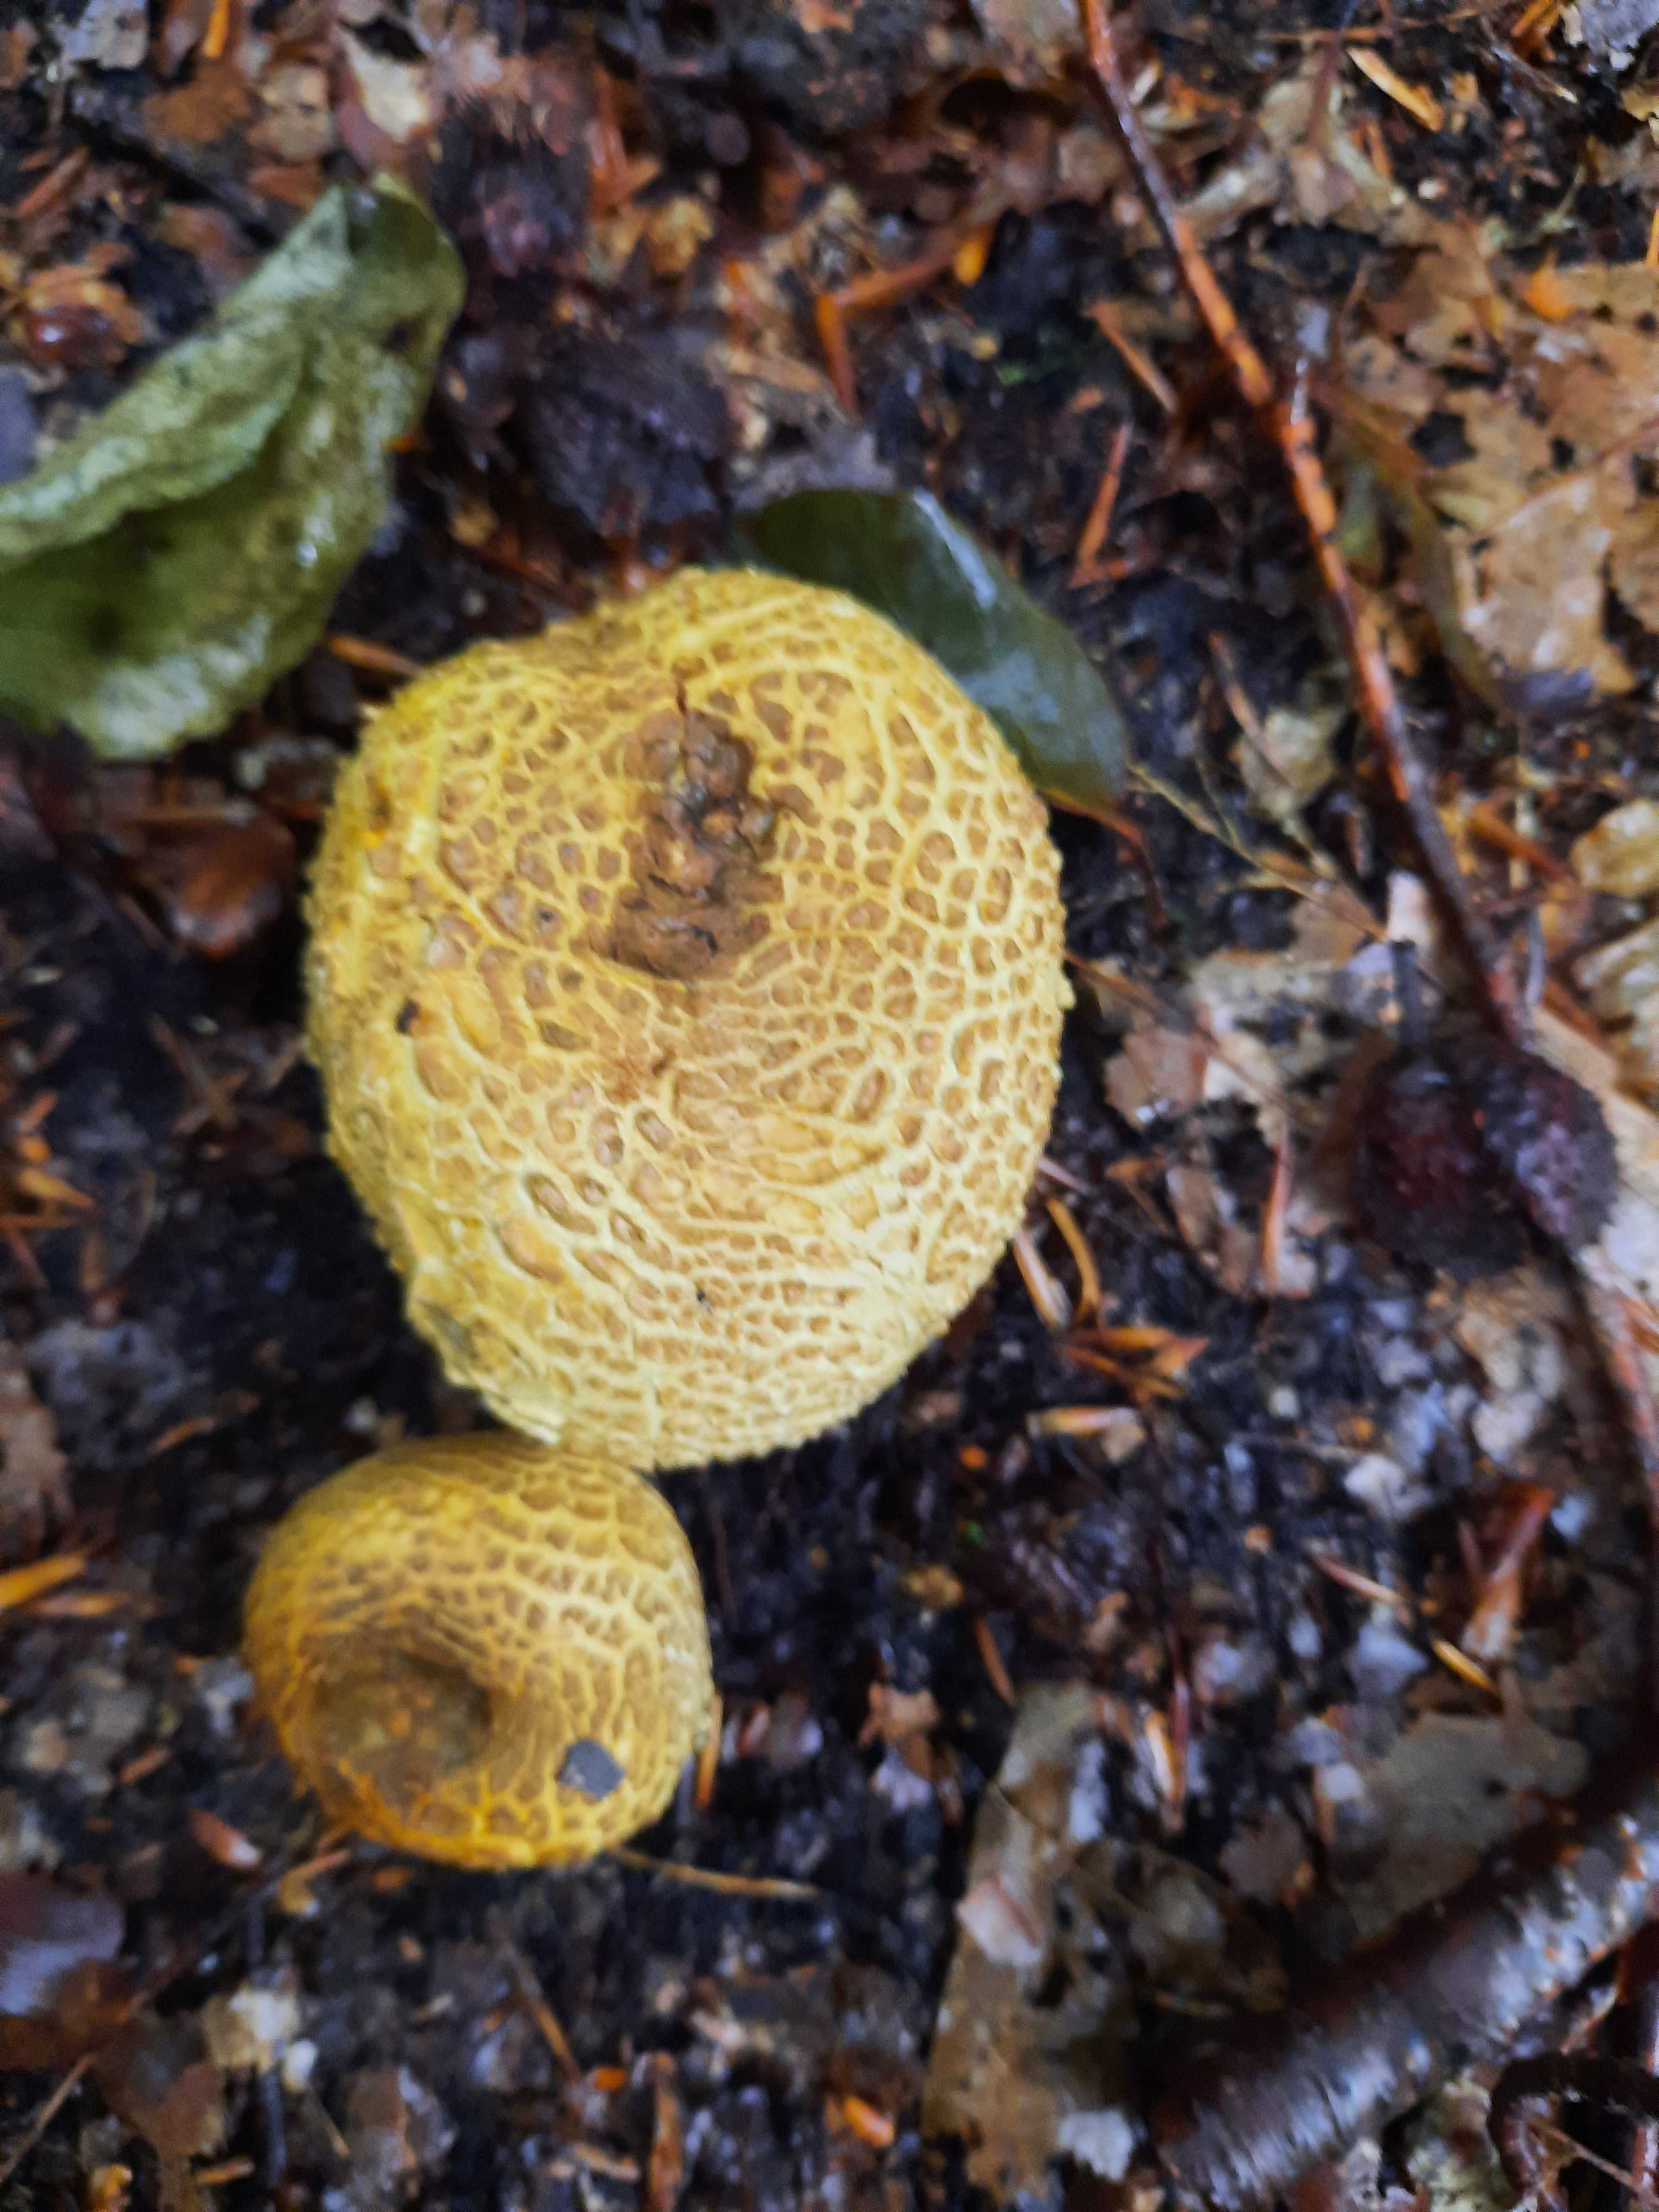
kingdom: Fungi
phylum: Basidiomycota
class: Agaricomycetes
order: Boletales
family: Sclerodermataceae
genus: Scleroderma
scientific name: Scleroderma citrinum
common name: almindelig bruskbold
